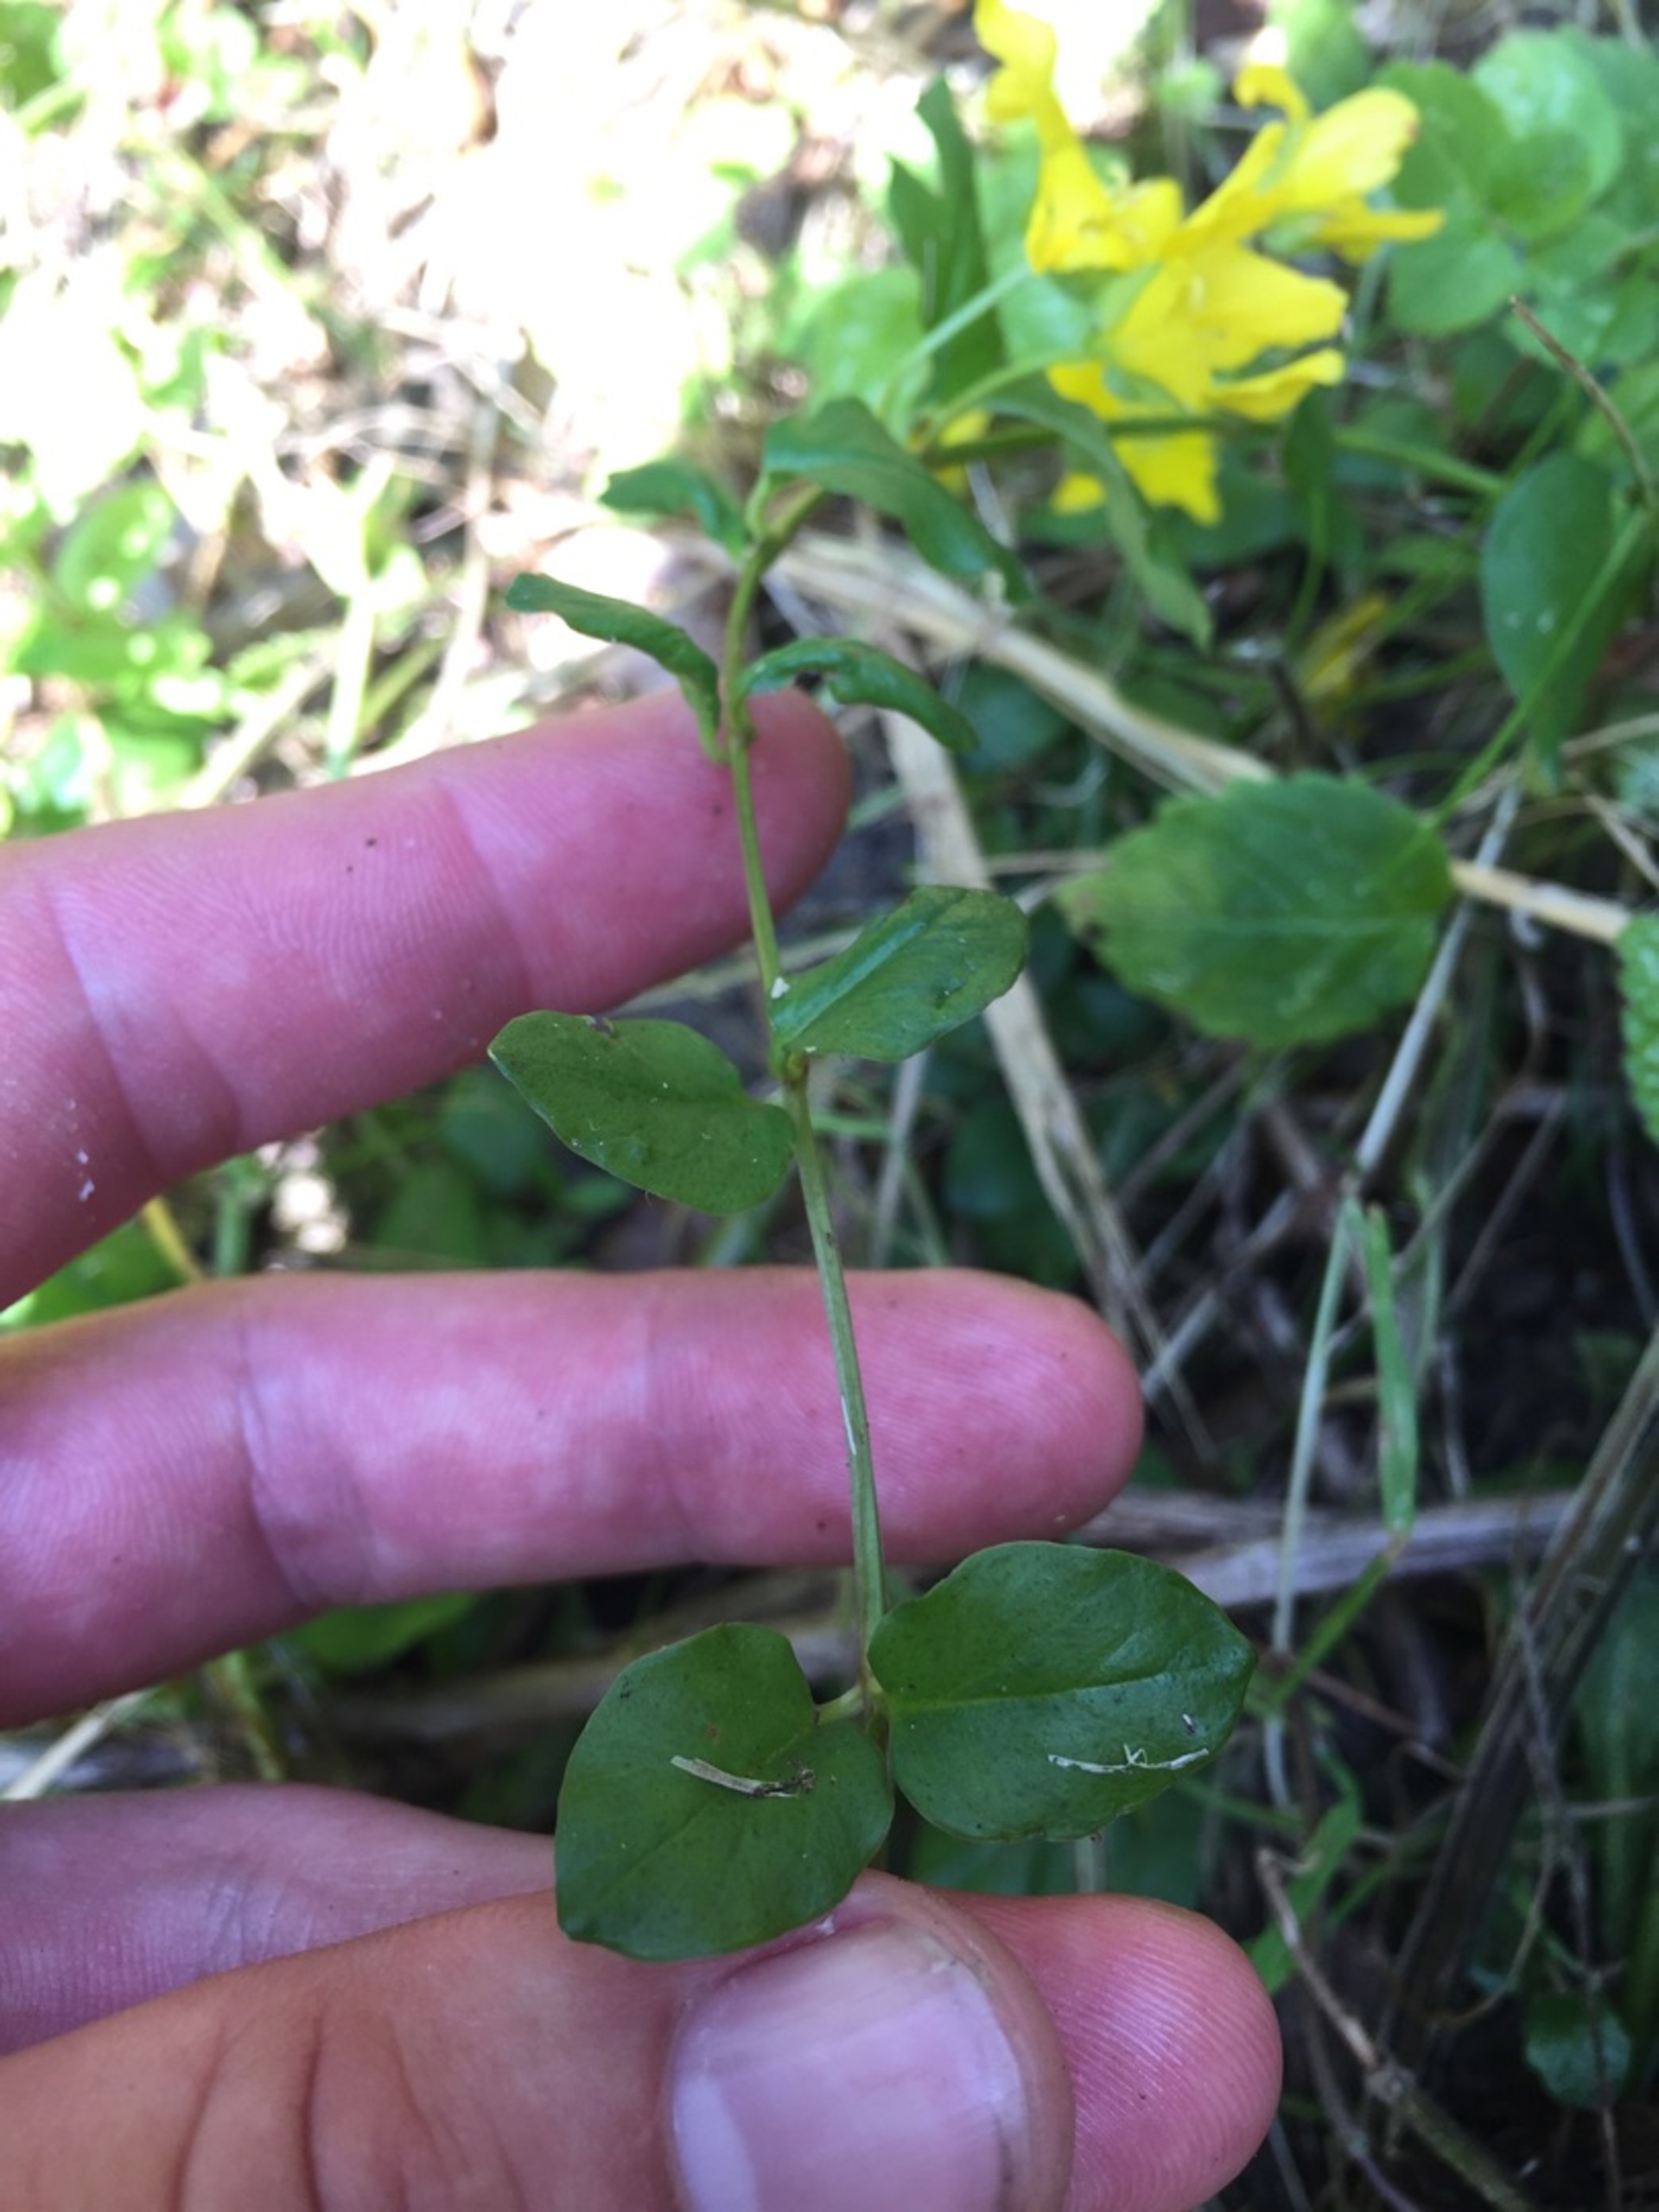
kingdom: Plantae
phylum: Tracheophyta
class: Magnoliopsida
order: Ericales
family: Primulaceae
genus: Lysimachia
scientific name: Lysimachia nummularia
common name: Pengebladet fredløs
